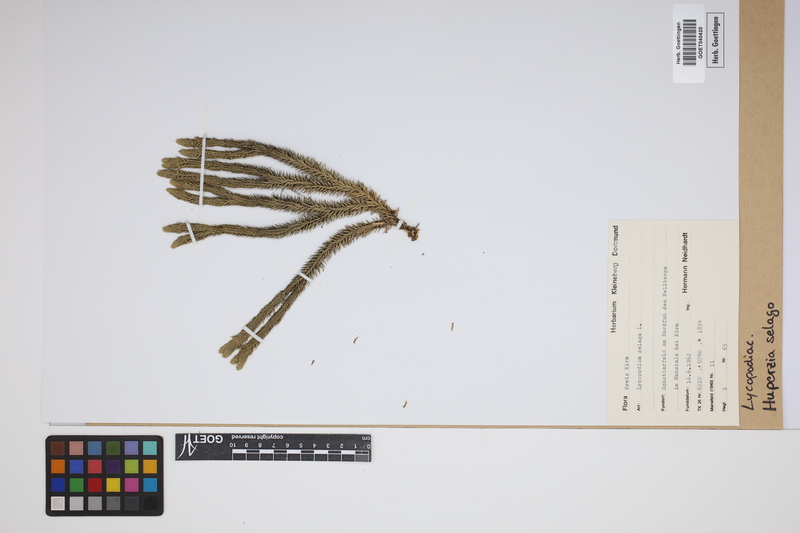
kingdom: Plantae
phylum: Tracheophyta
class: Lycopodiopsida
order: Lycopodiales
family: Lycopodiaceae
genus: Huperzia
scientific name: Huperzia selago
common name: Northern firmoss
